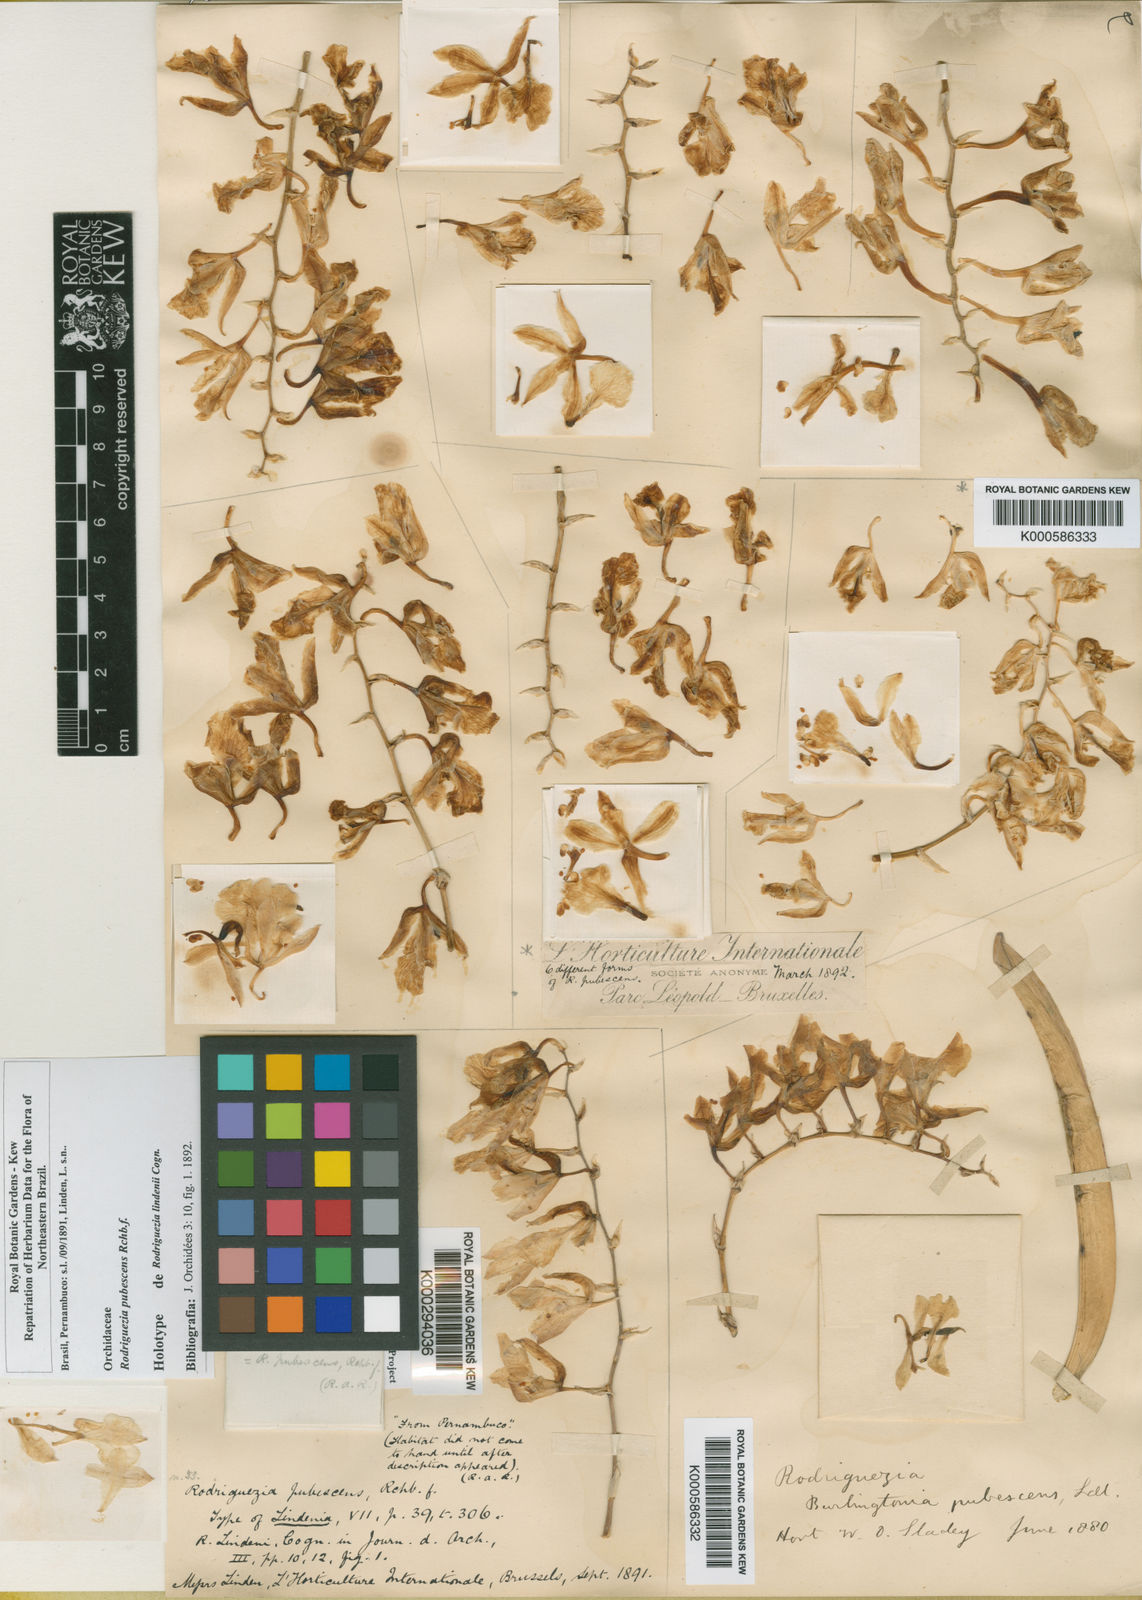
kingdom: Plantae
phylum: Tracheophyta
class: Liliopsida
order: Asparagales
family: Orchidaceae
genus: Rodriguezia
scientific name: Rodriguezia pubescens
